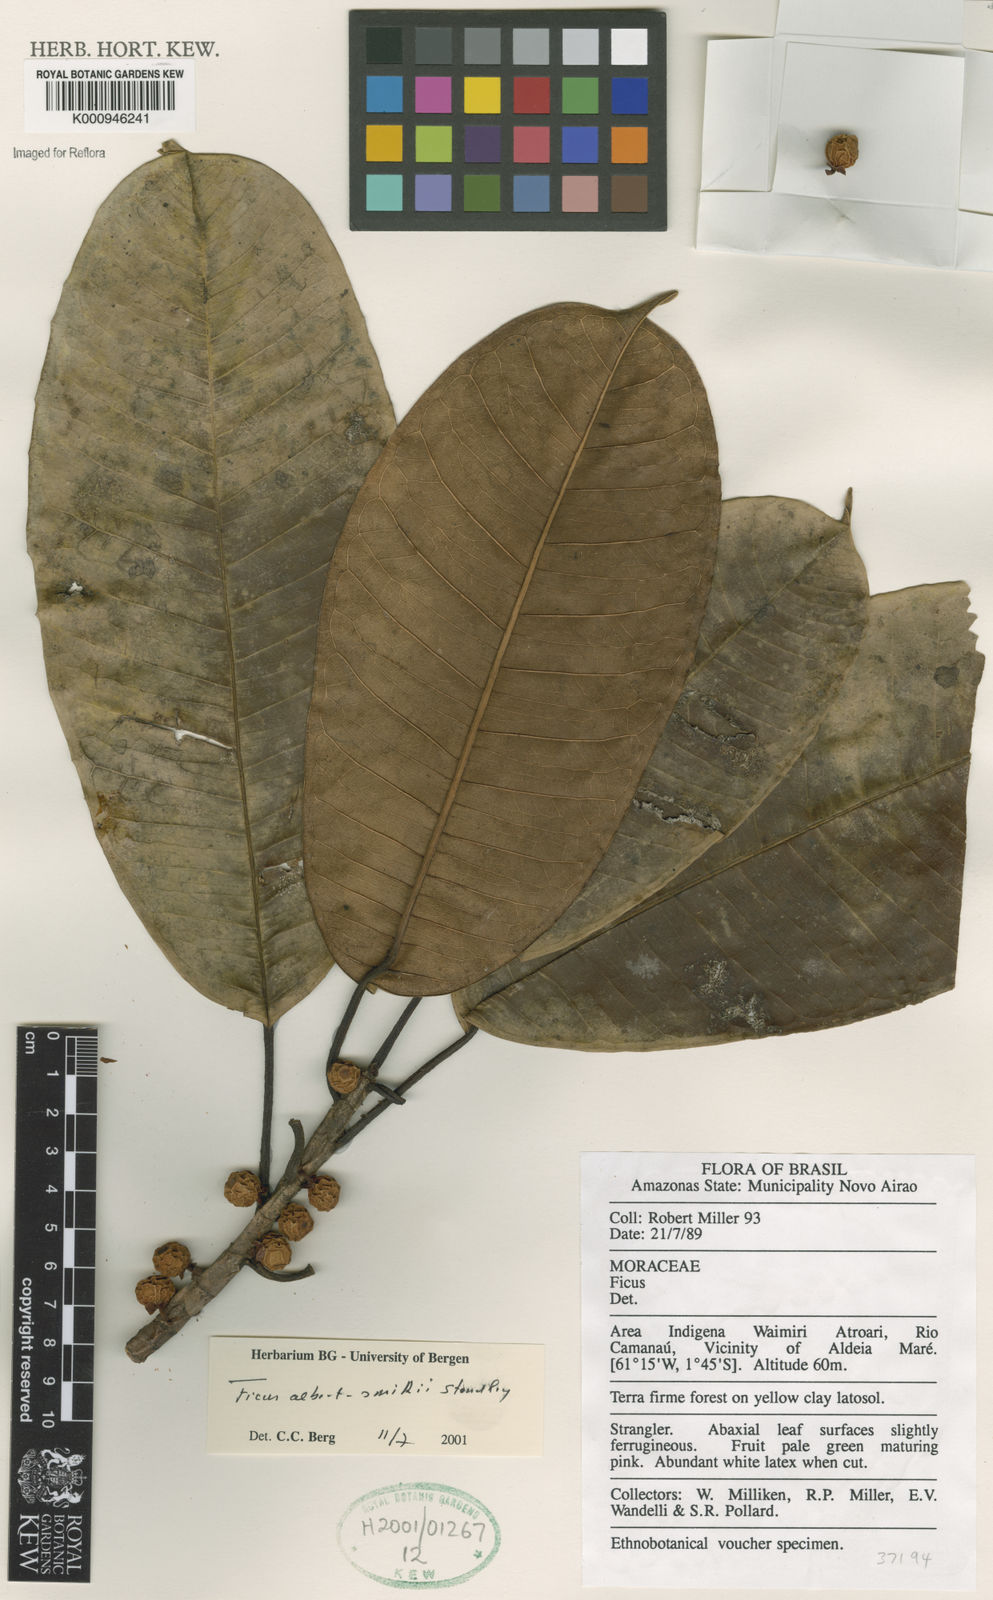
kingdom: Plantae
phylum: Tracheophyta
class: Magnoliopsida
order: Rosales
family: Moraceae
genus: Ficus
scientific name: Ficus albert-smithii
